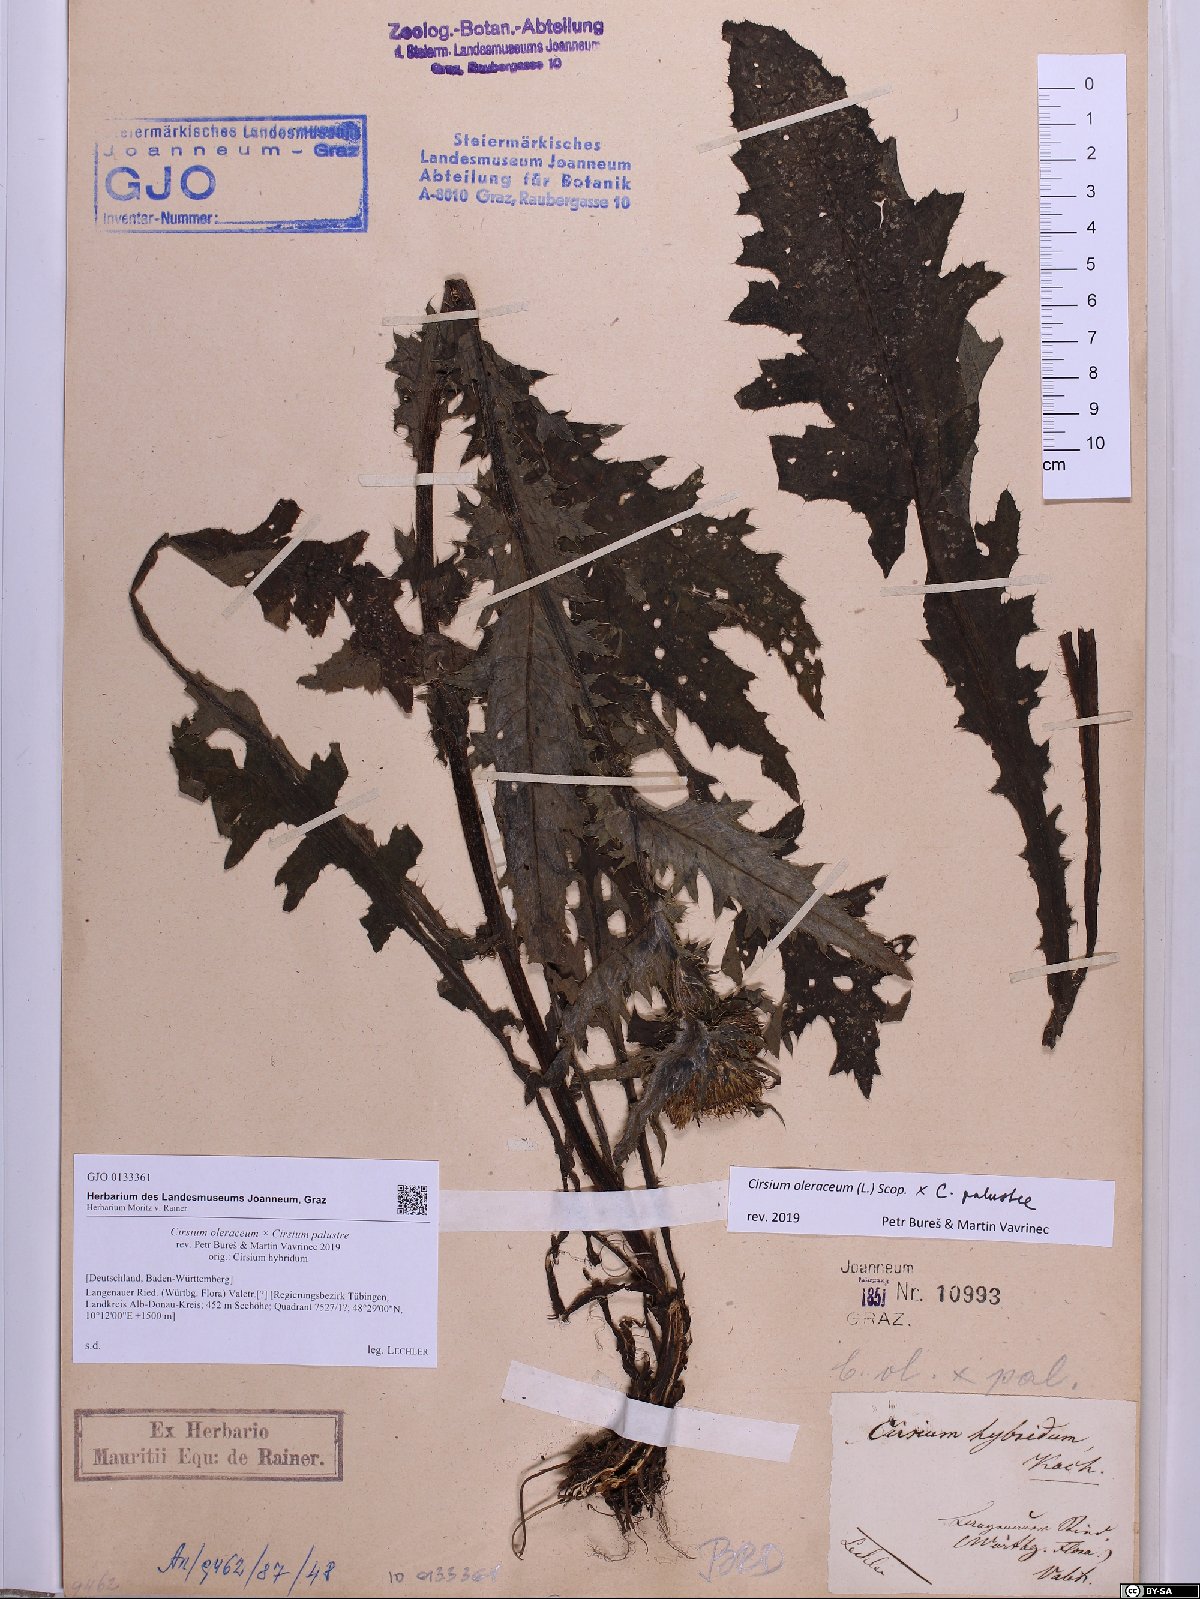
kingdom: Plantae
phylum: Tracheophyta
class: Magnoliopsida
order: Asterales
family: Asteraceae
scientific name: Asteraceae
